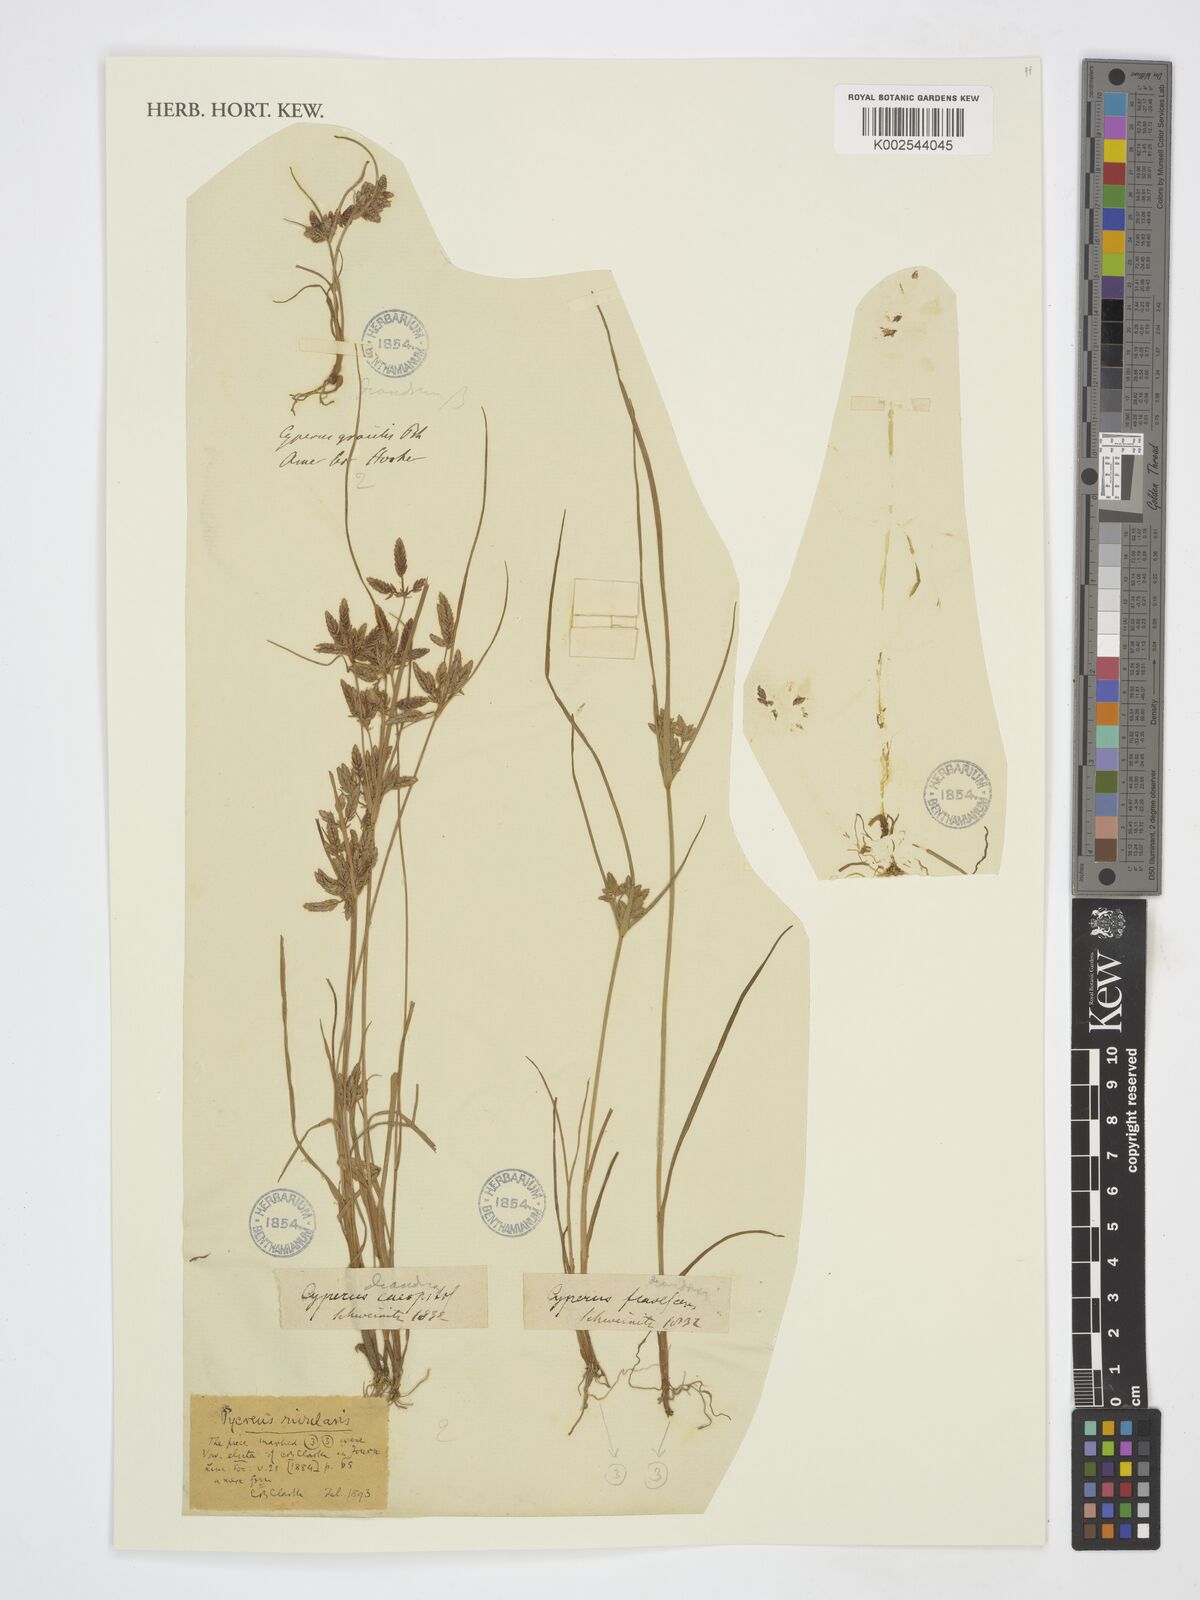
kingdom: Plantae
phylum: Tracheophyta
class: Liliopsida
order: Poales
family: Cyperaceae
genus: Cyperus
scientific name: Cyperus
